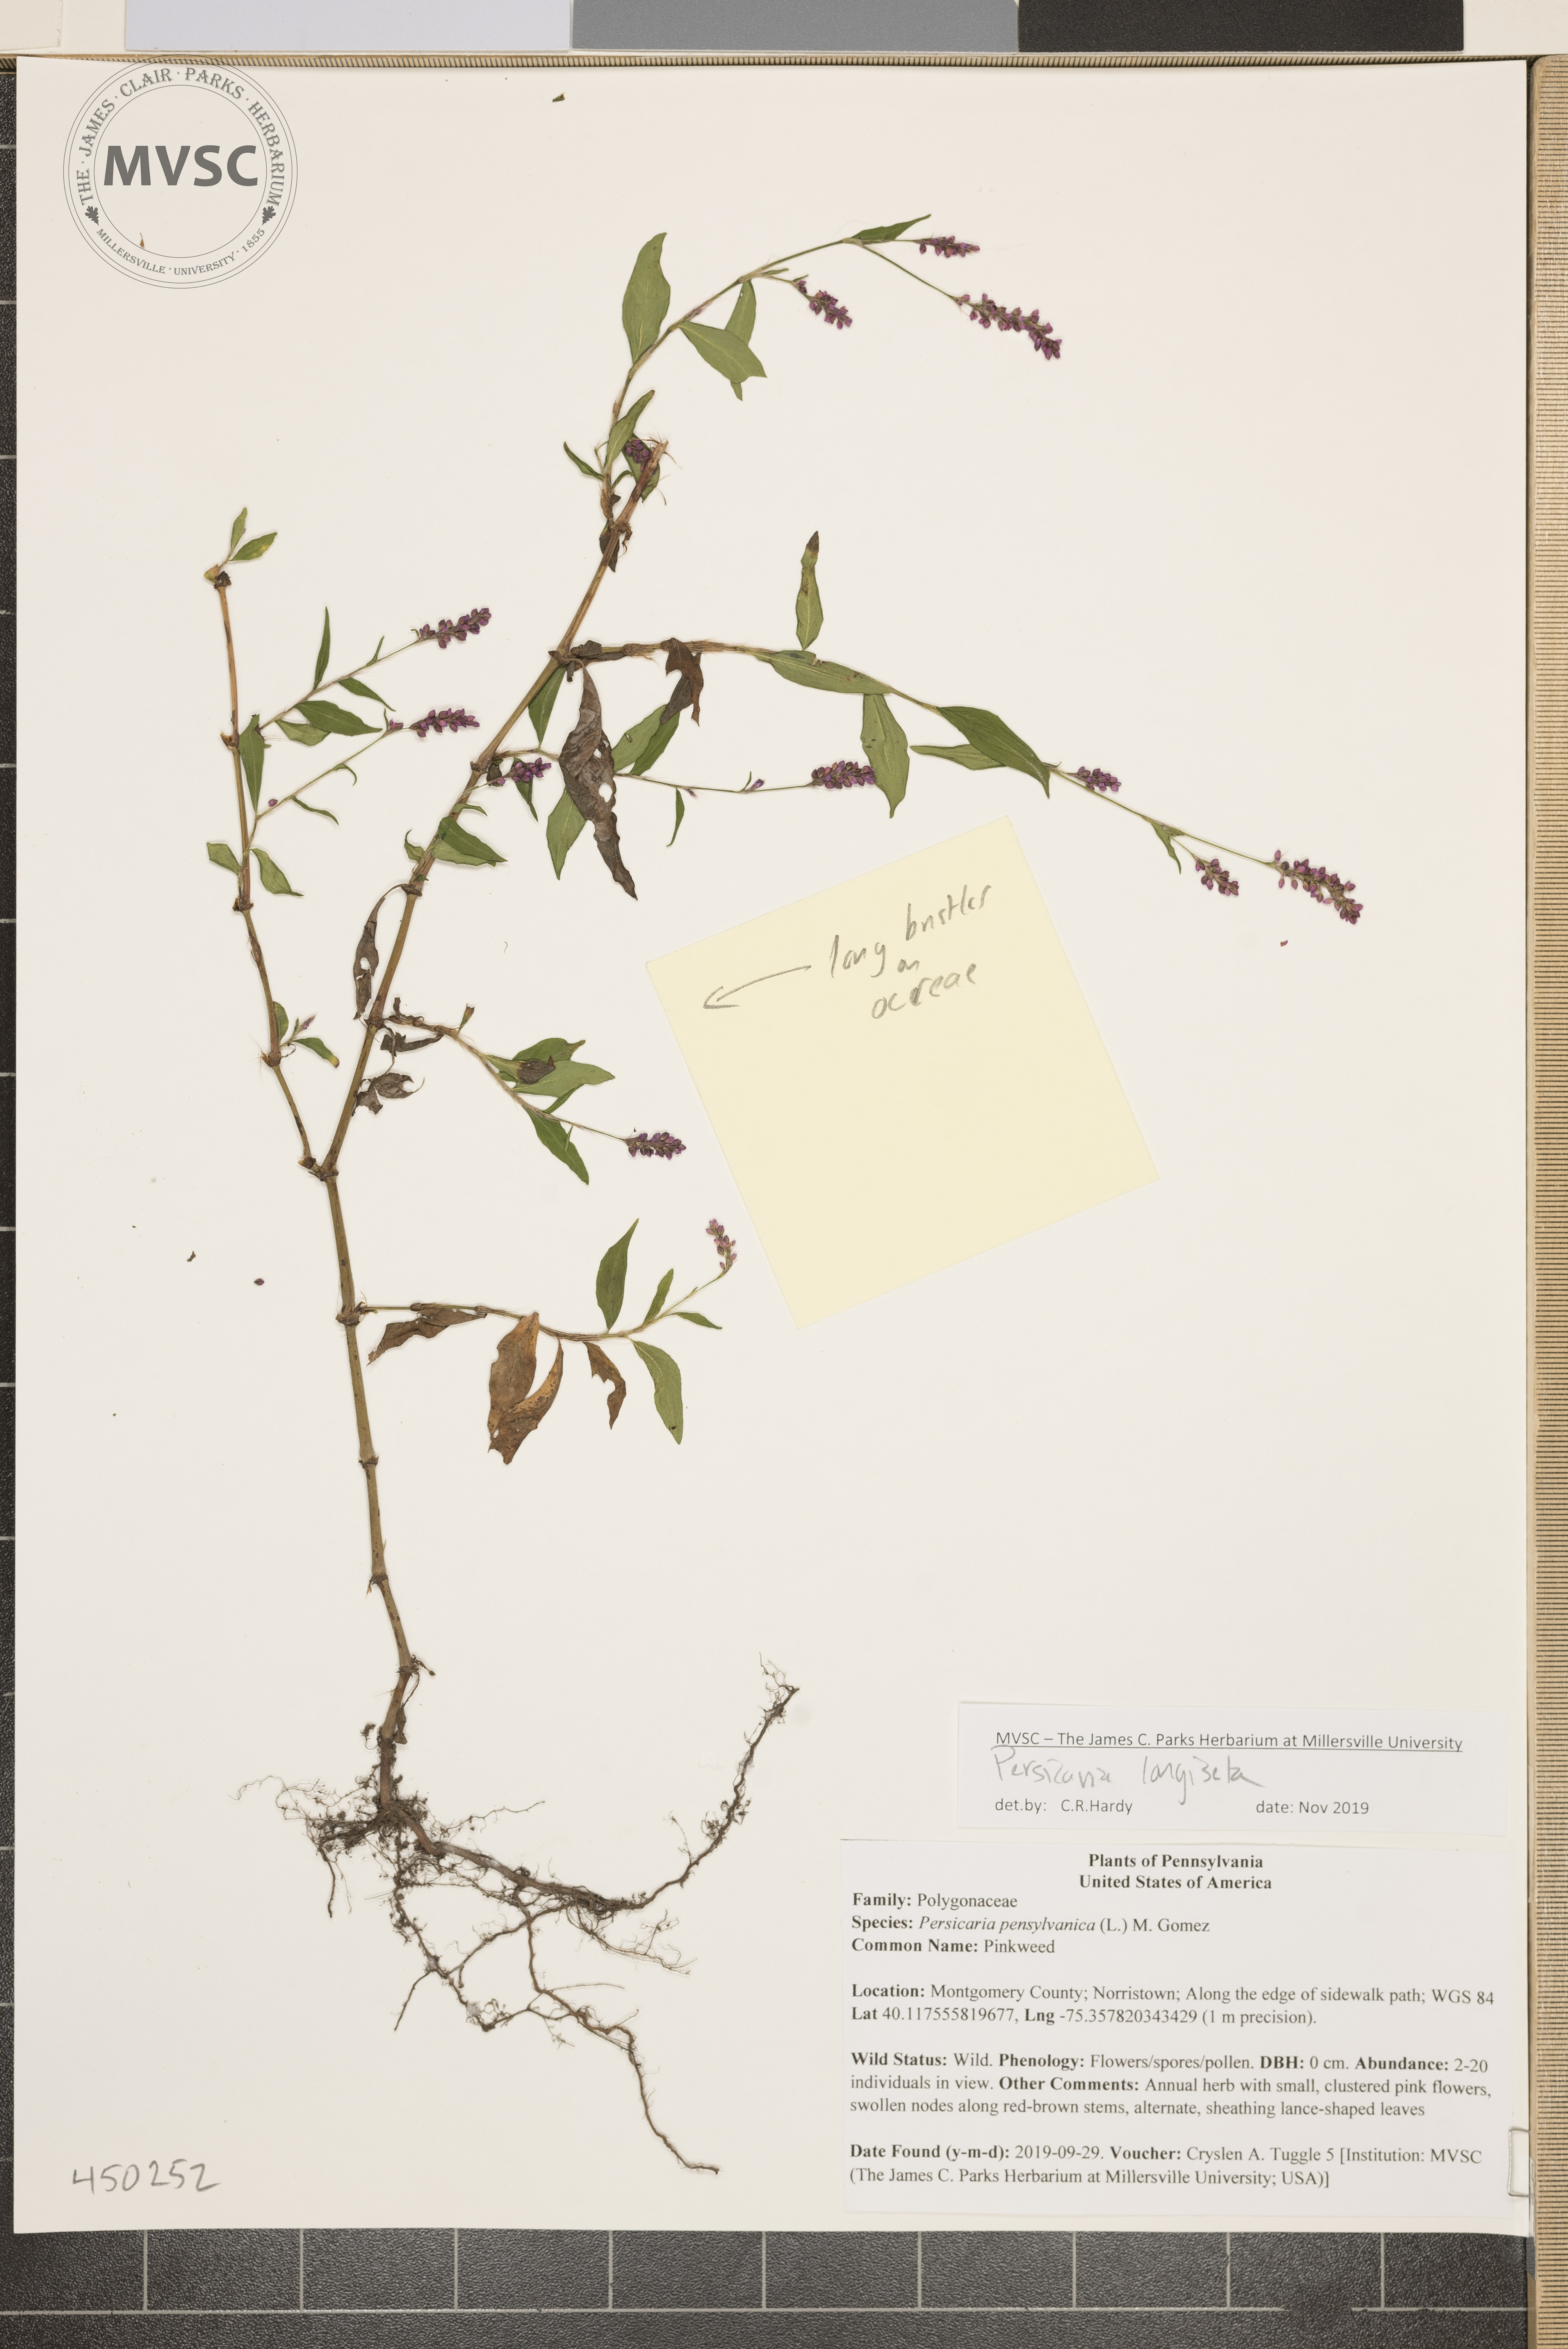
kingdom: Plantae
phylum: Tracheophyta
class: Magnoliopsida
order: Caryophyllales
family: Polygonaceae
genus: Persicaria
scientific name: Persicaria longiseta
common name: smartweed
